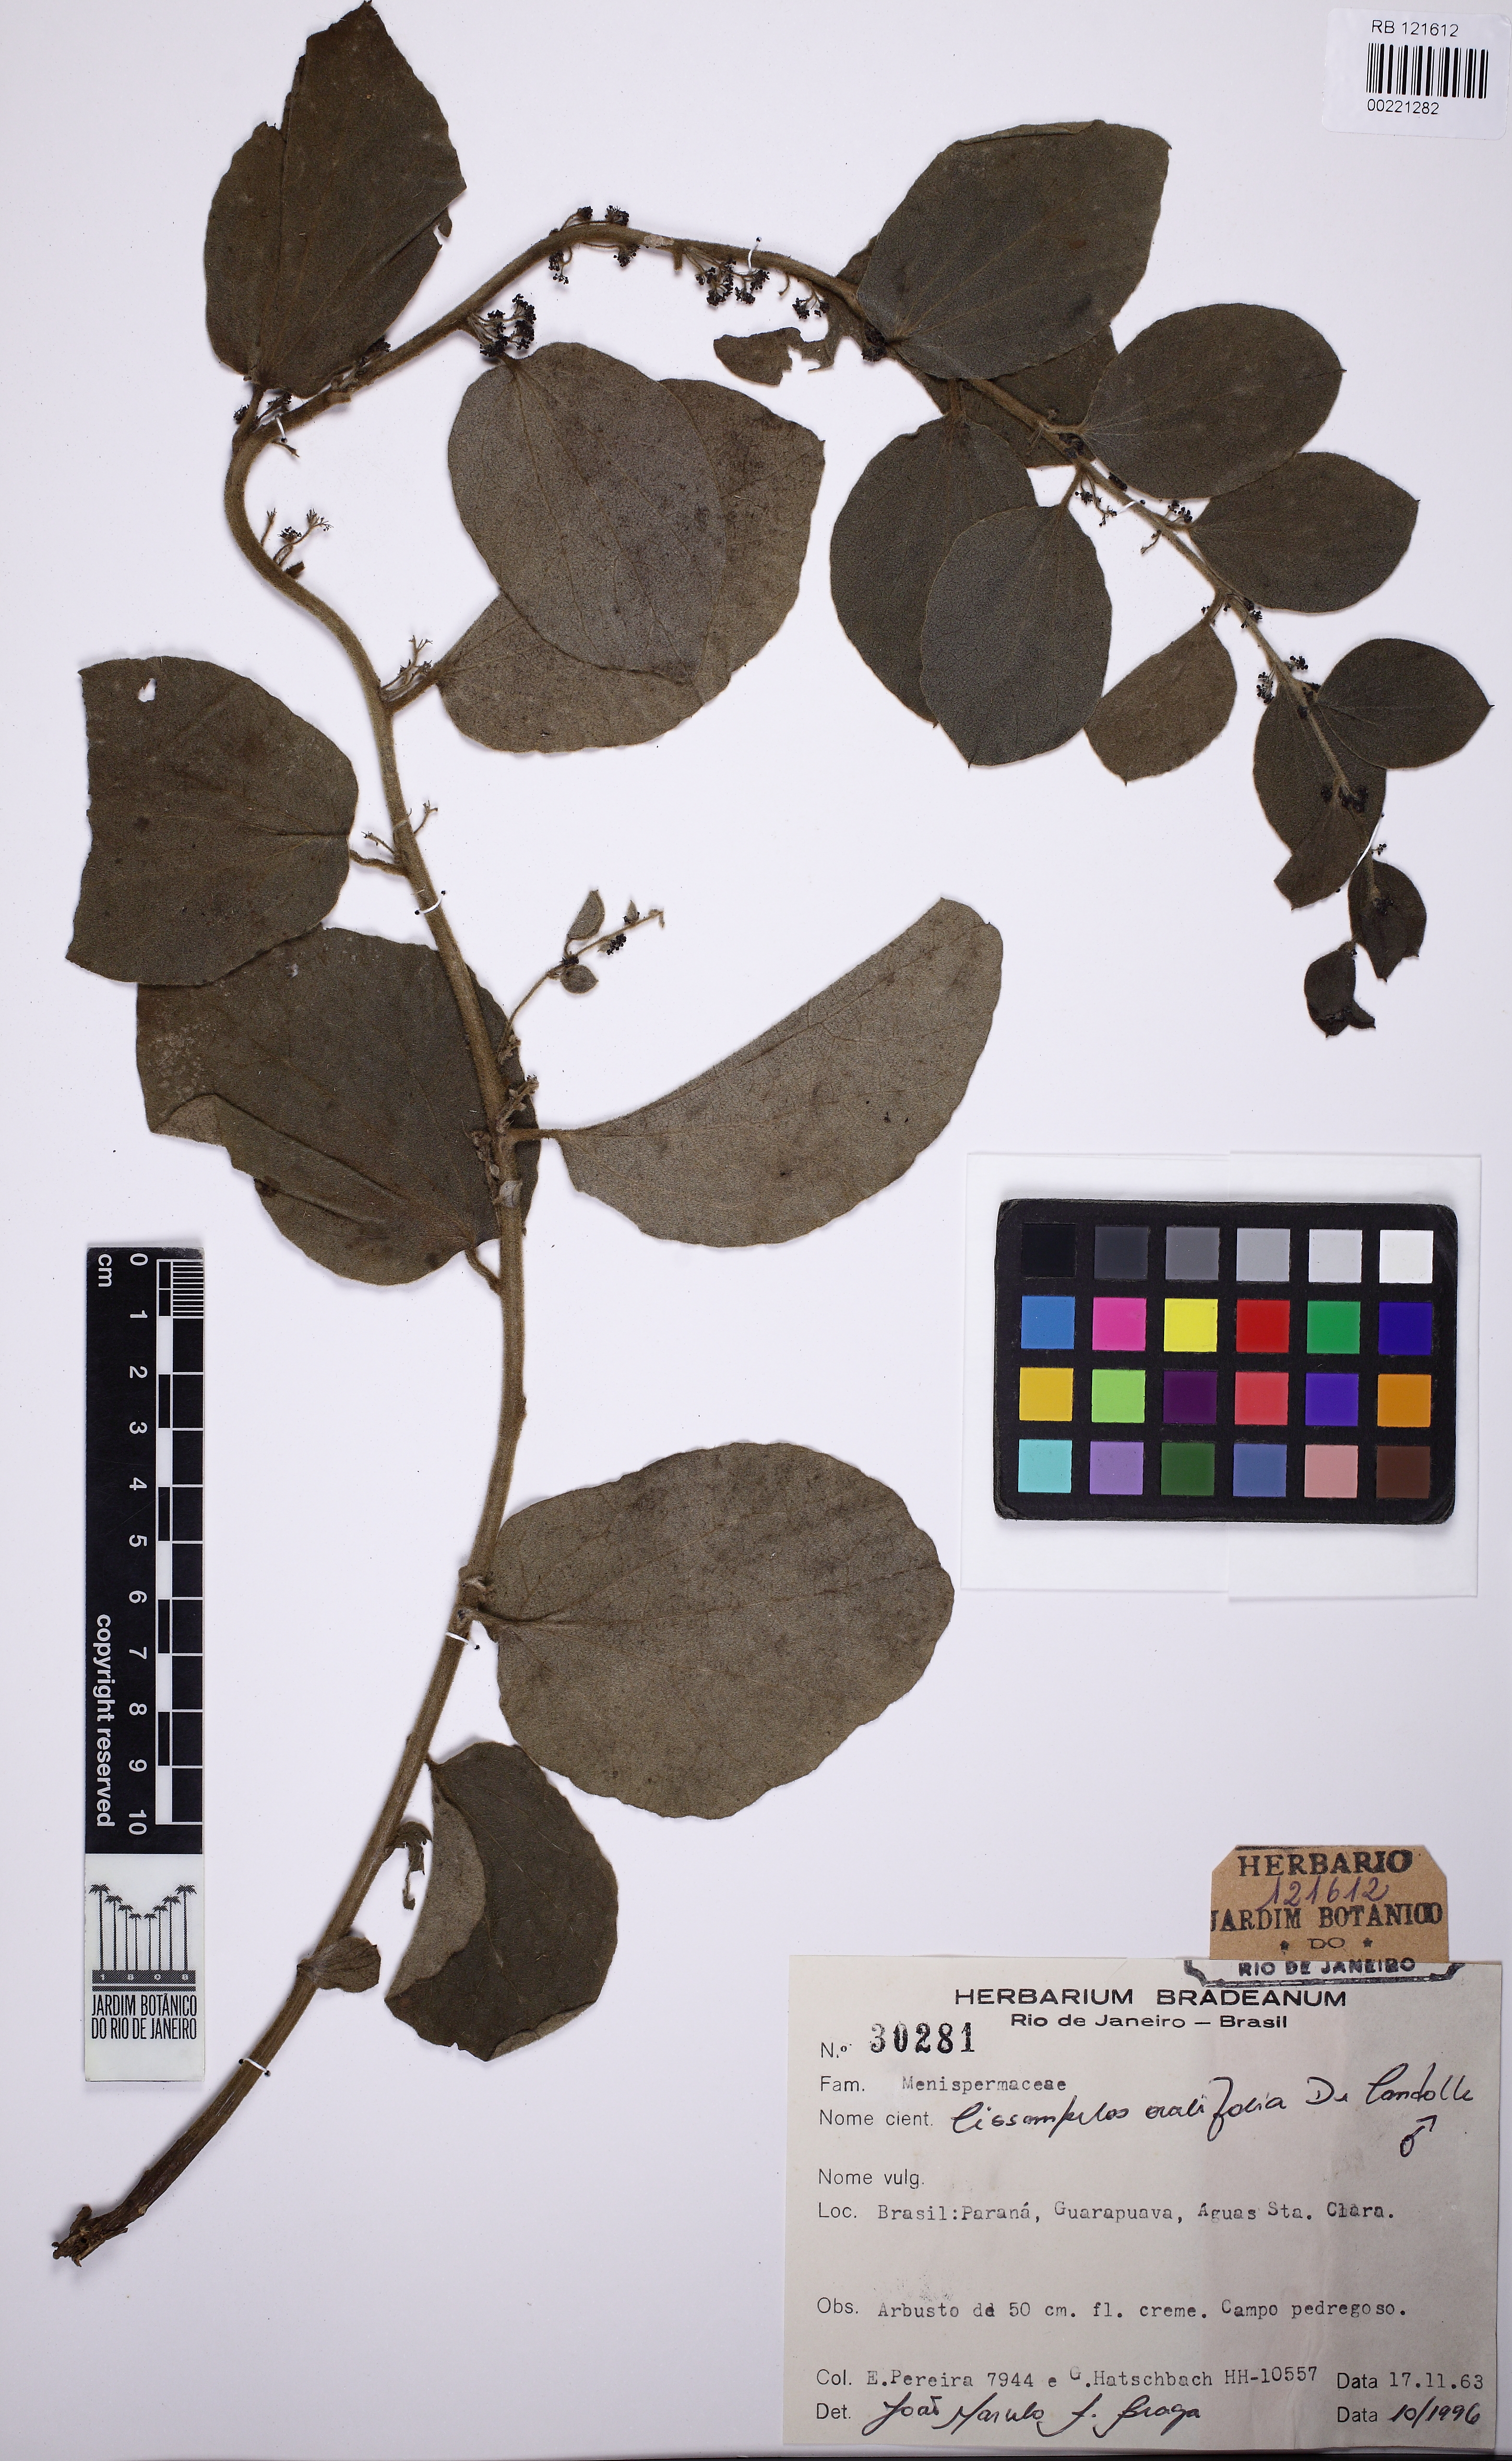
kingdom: Plantae
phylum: Tracheophyta
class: Magnoliopsida
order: Ranunculales
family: Menispermaceae
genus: Cissampelos
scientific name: Cissampelos ovalifolia
